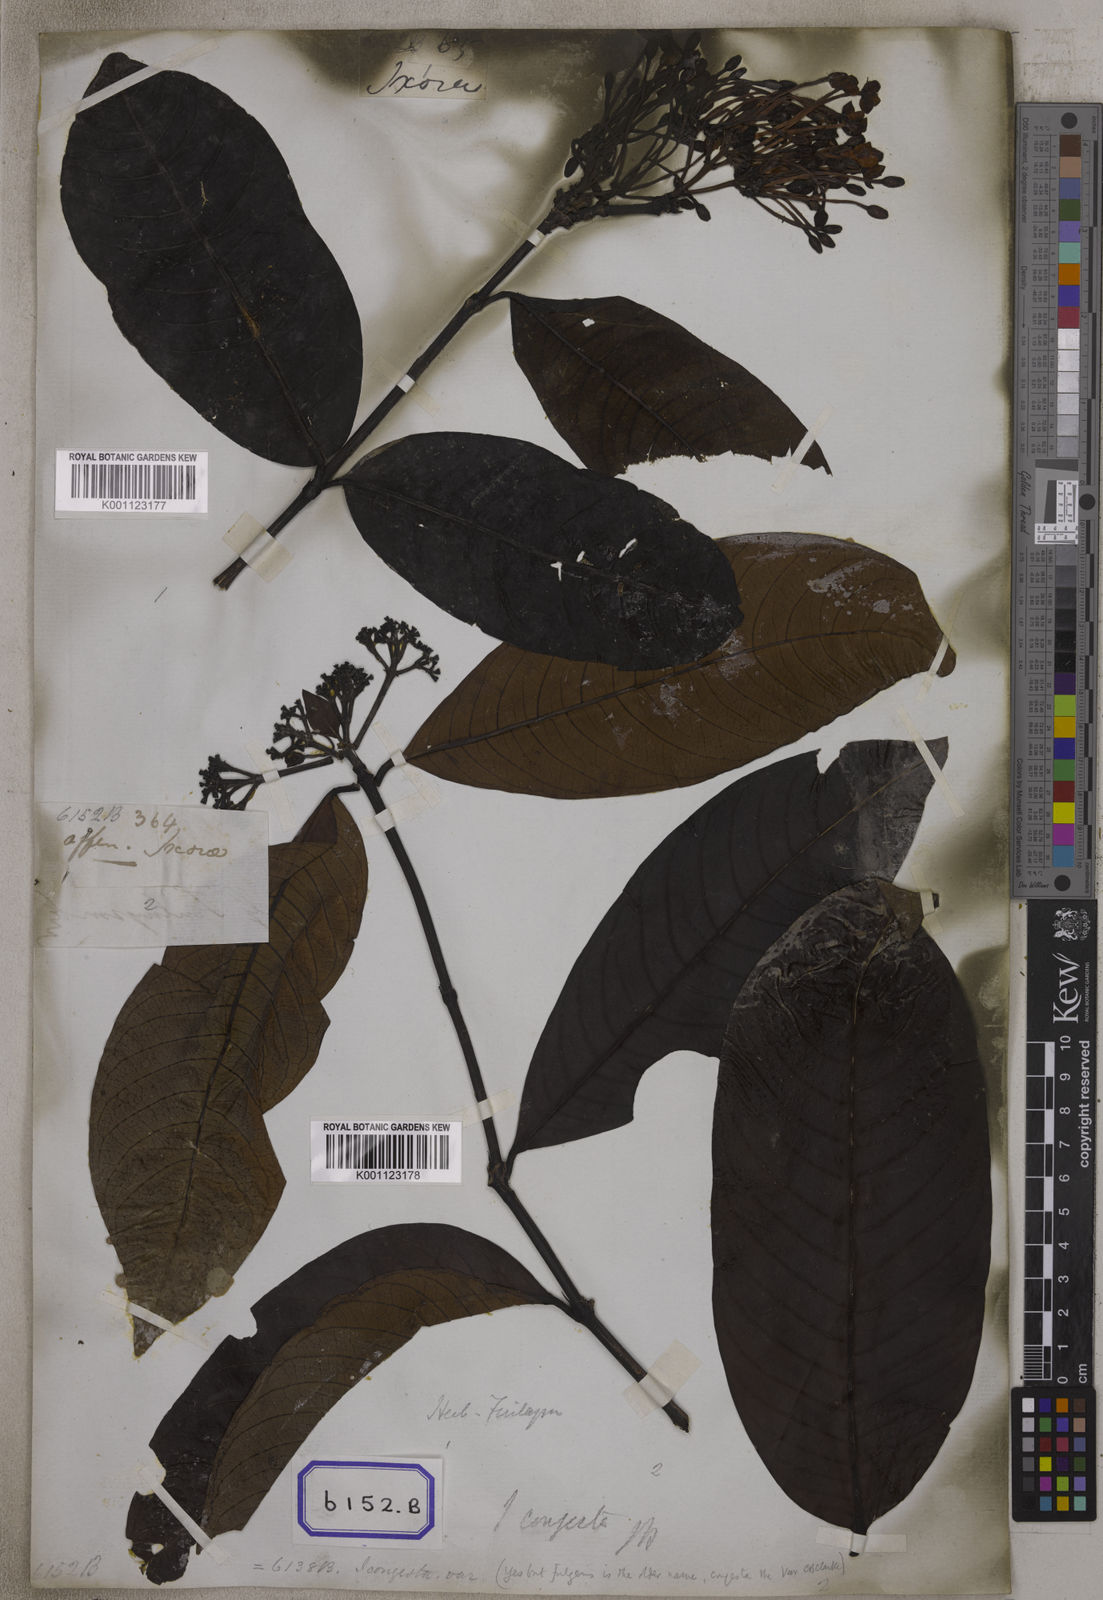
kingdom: Plantae
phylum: Tracheophyta
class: Magnoliopsida
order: Gentianales
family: Rubiaceae
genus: Ixora
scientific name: Ixora longifolia
